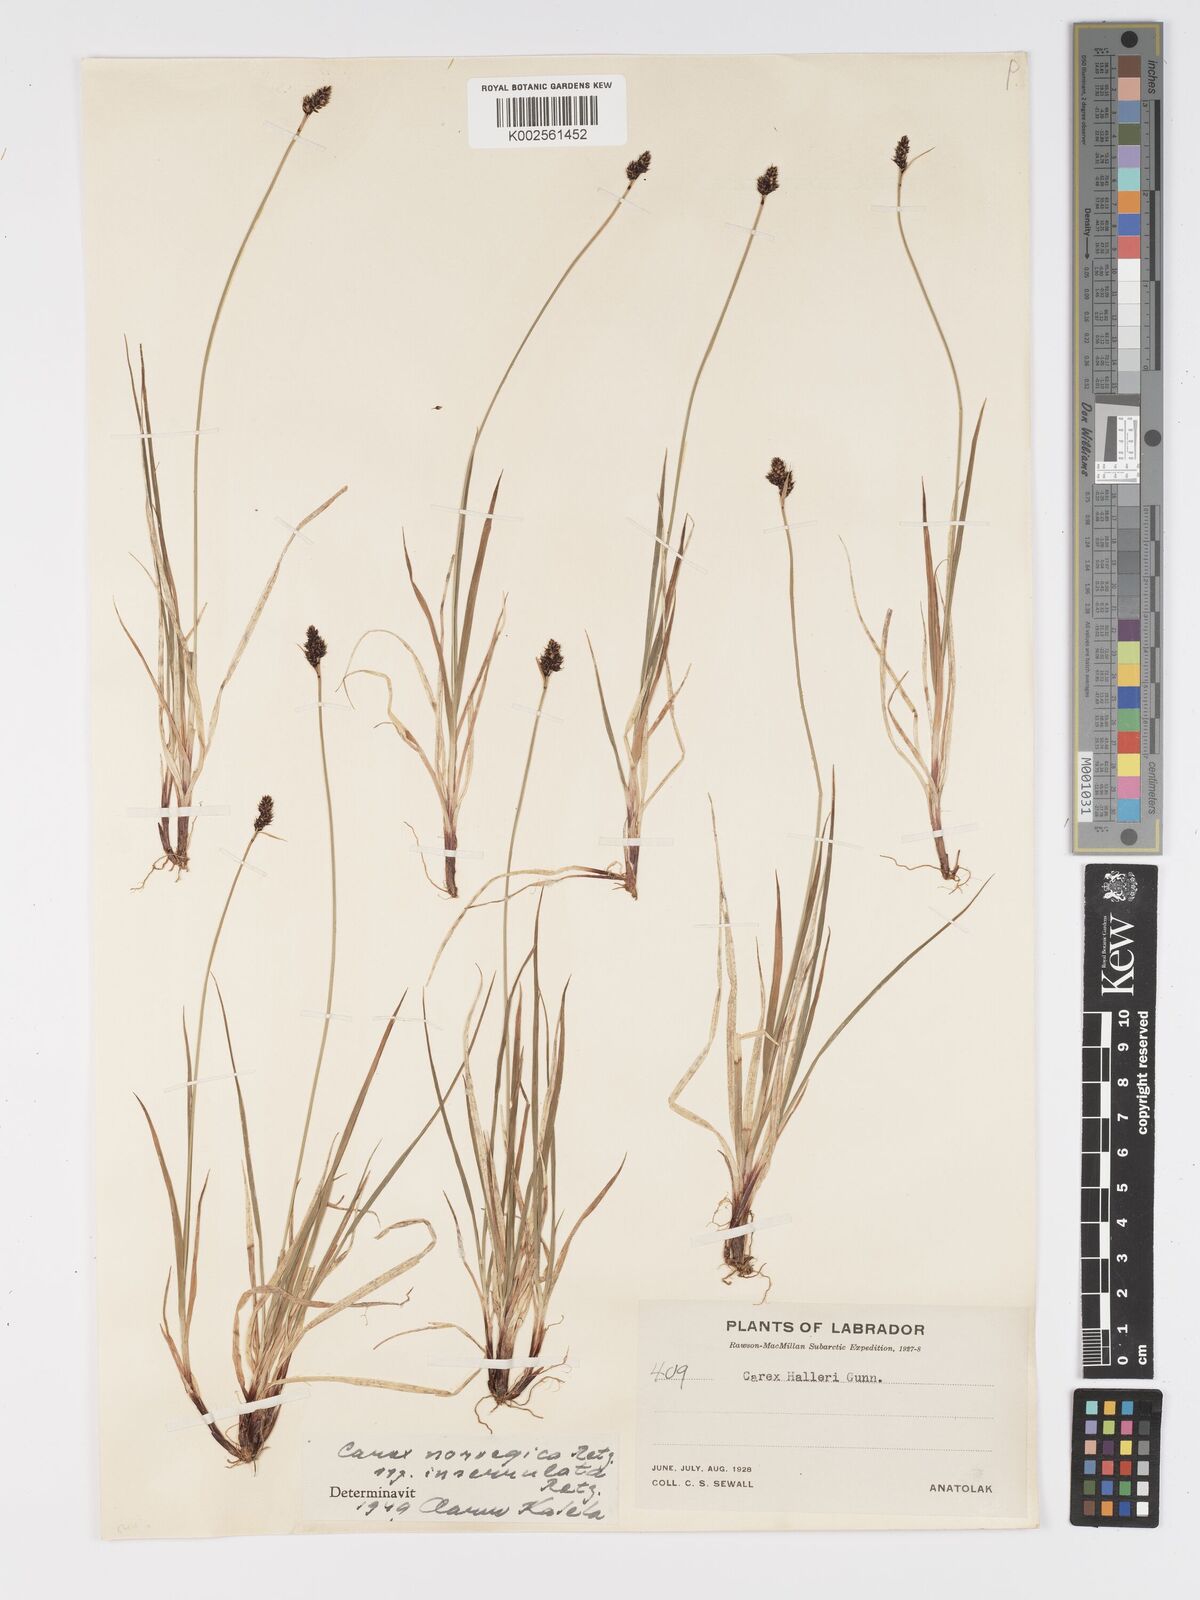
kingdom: Plantae
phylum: Tracheophyta
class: Liliopsida
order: Poales
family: Cyperaceae
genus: Carex
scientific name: Carex norvegica
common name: Close-headed alpine-sedge
